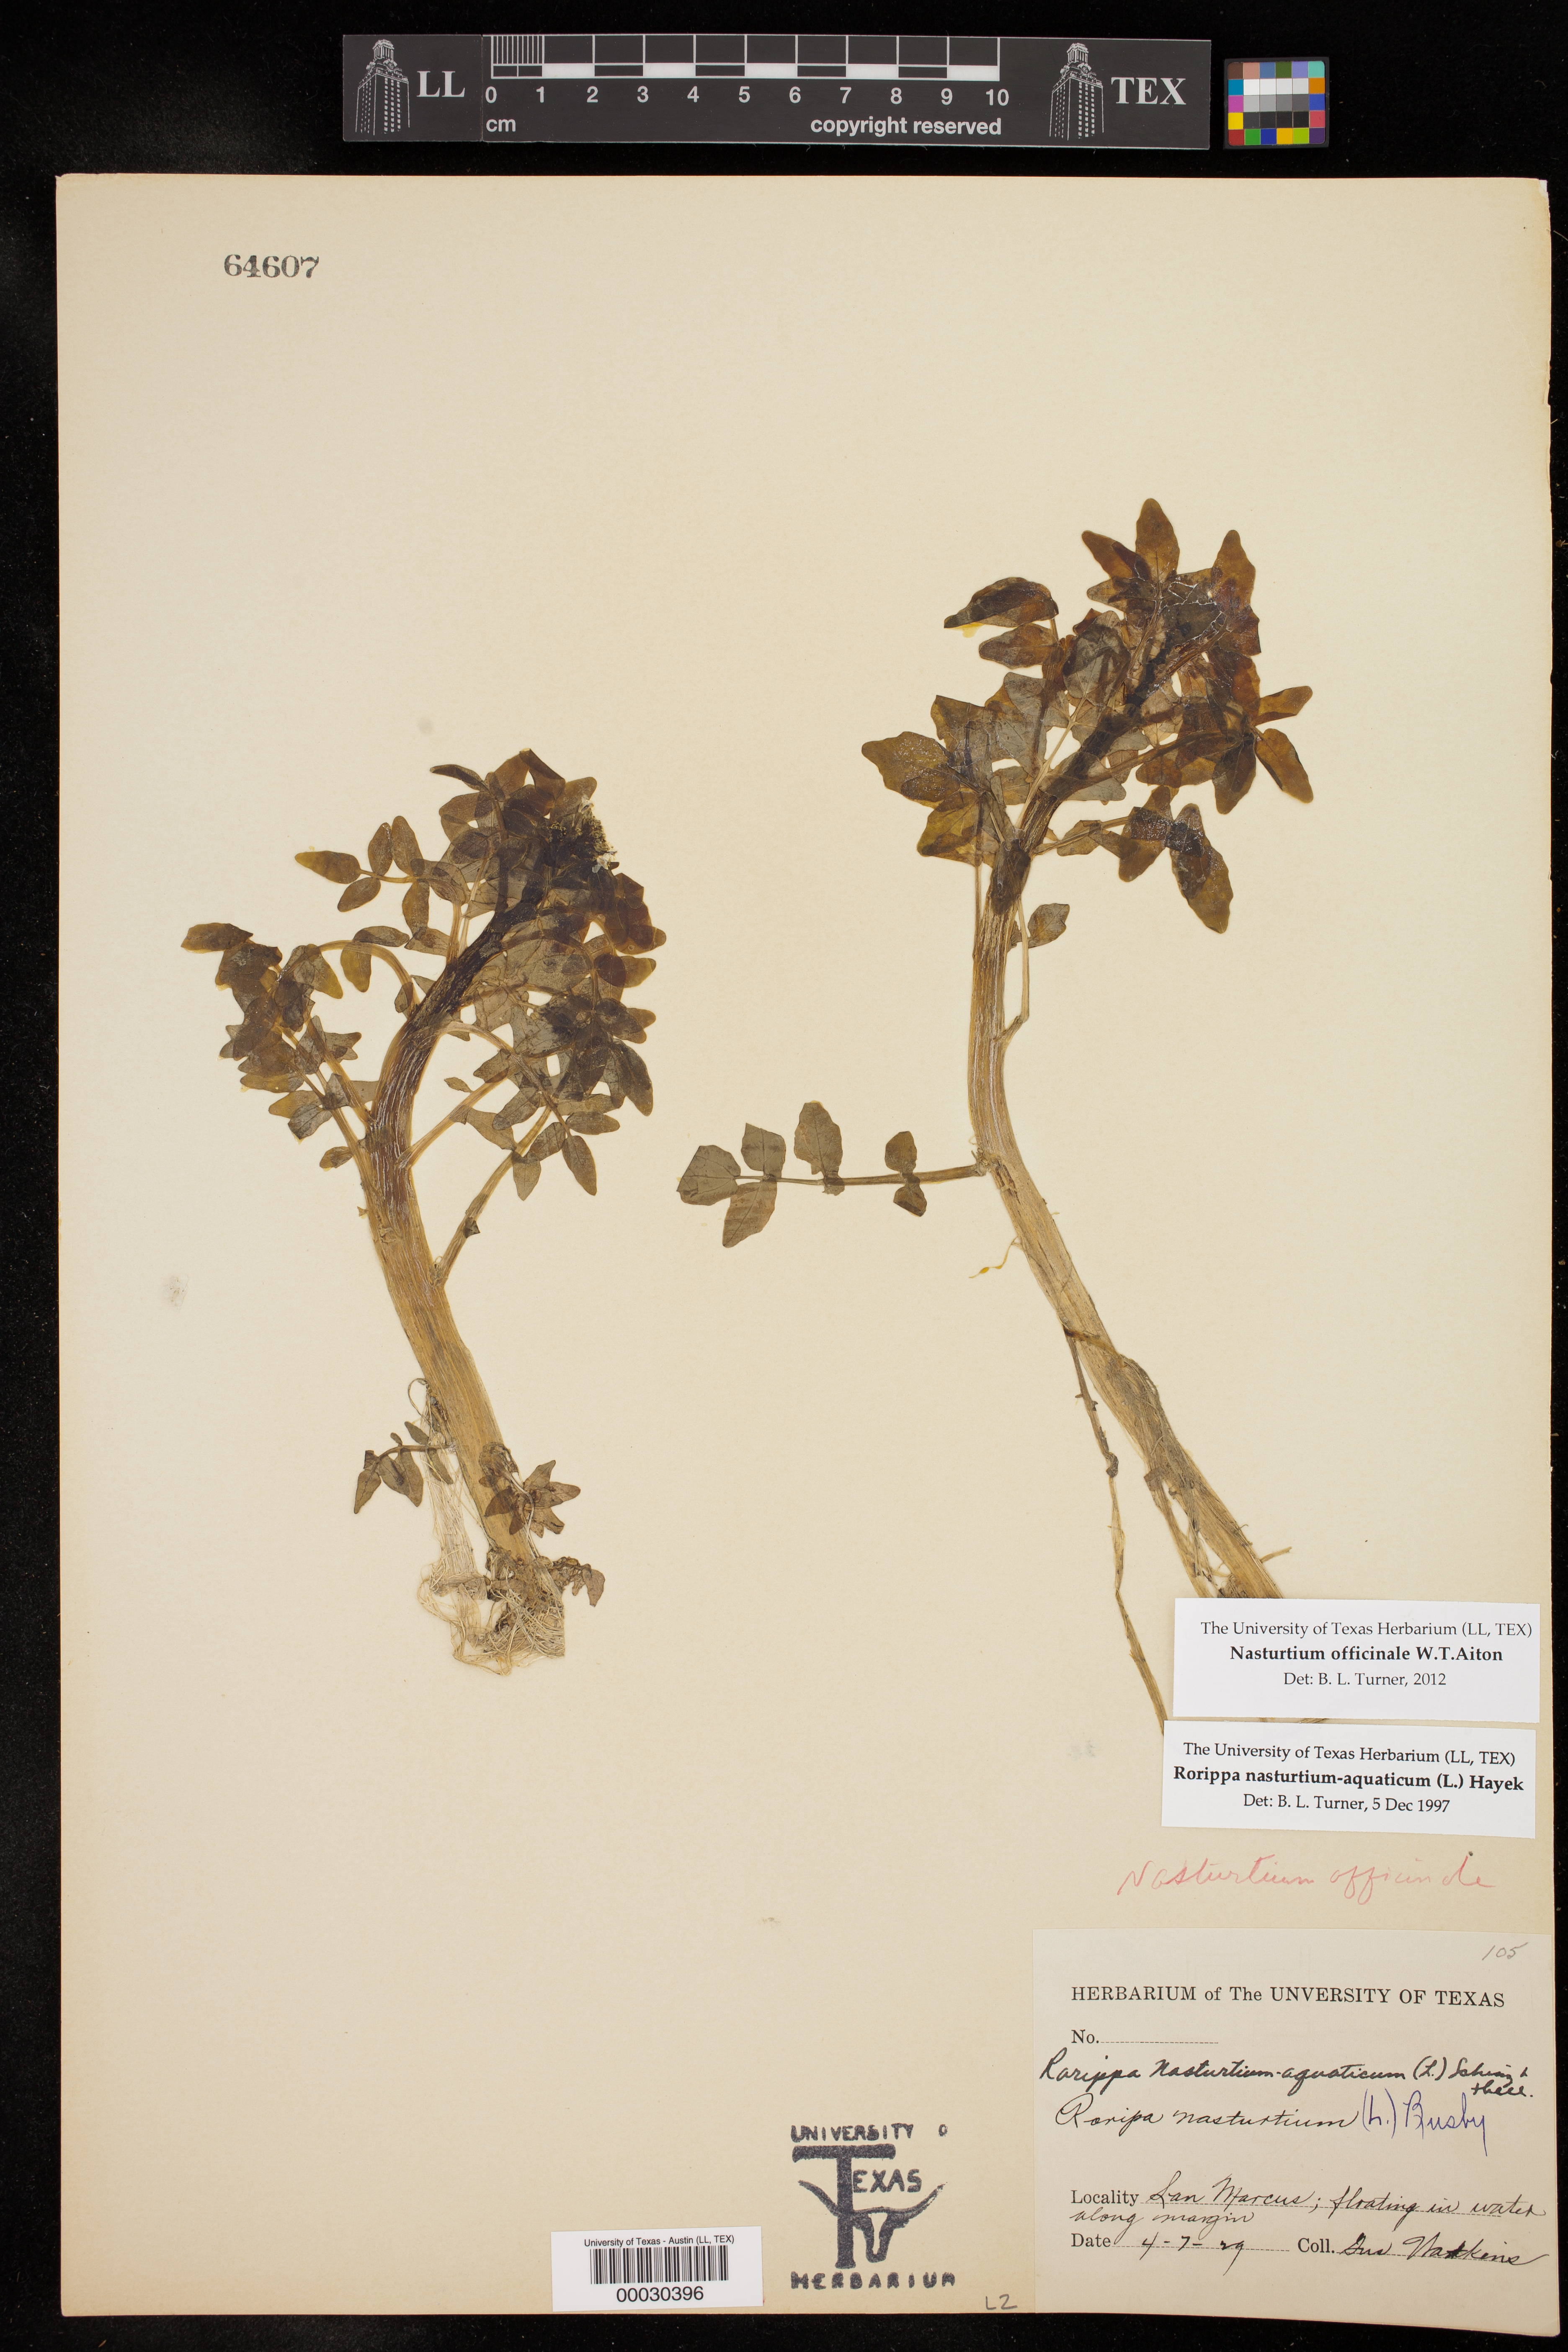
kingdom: Plantae
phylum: Tracheophyta
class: Magnoliopsida
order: Brassicales
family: Brassicaceae
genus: Nasturtium
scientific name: Nasturtium officinale
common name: Watercress
